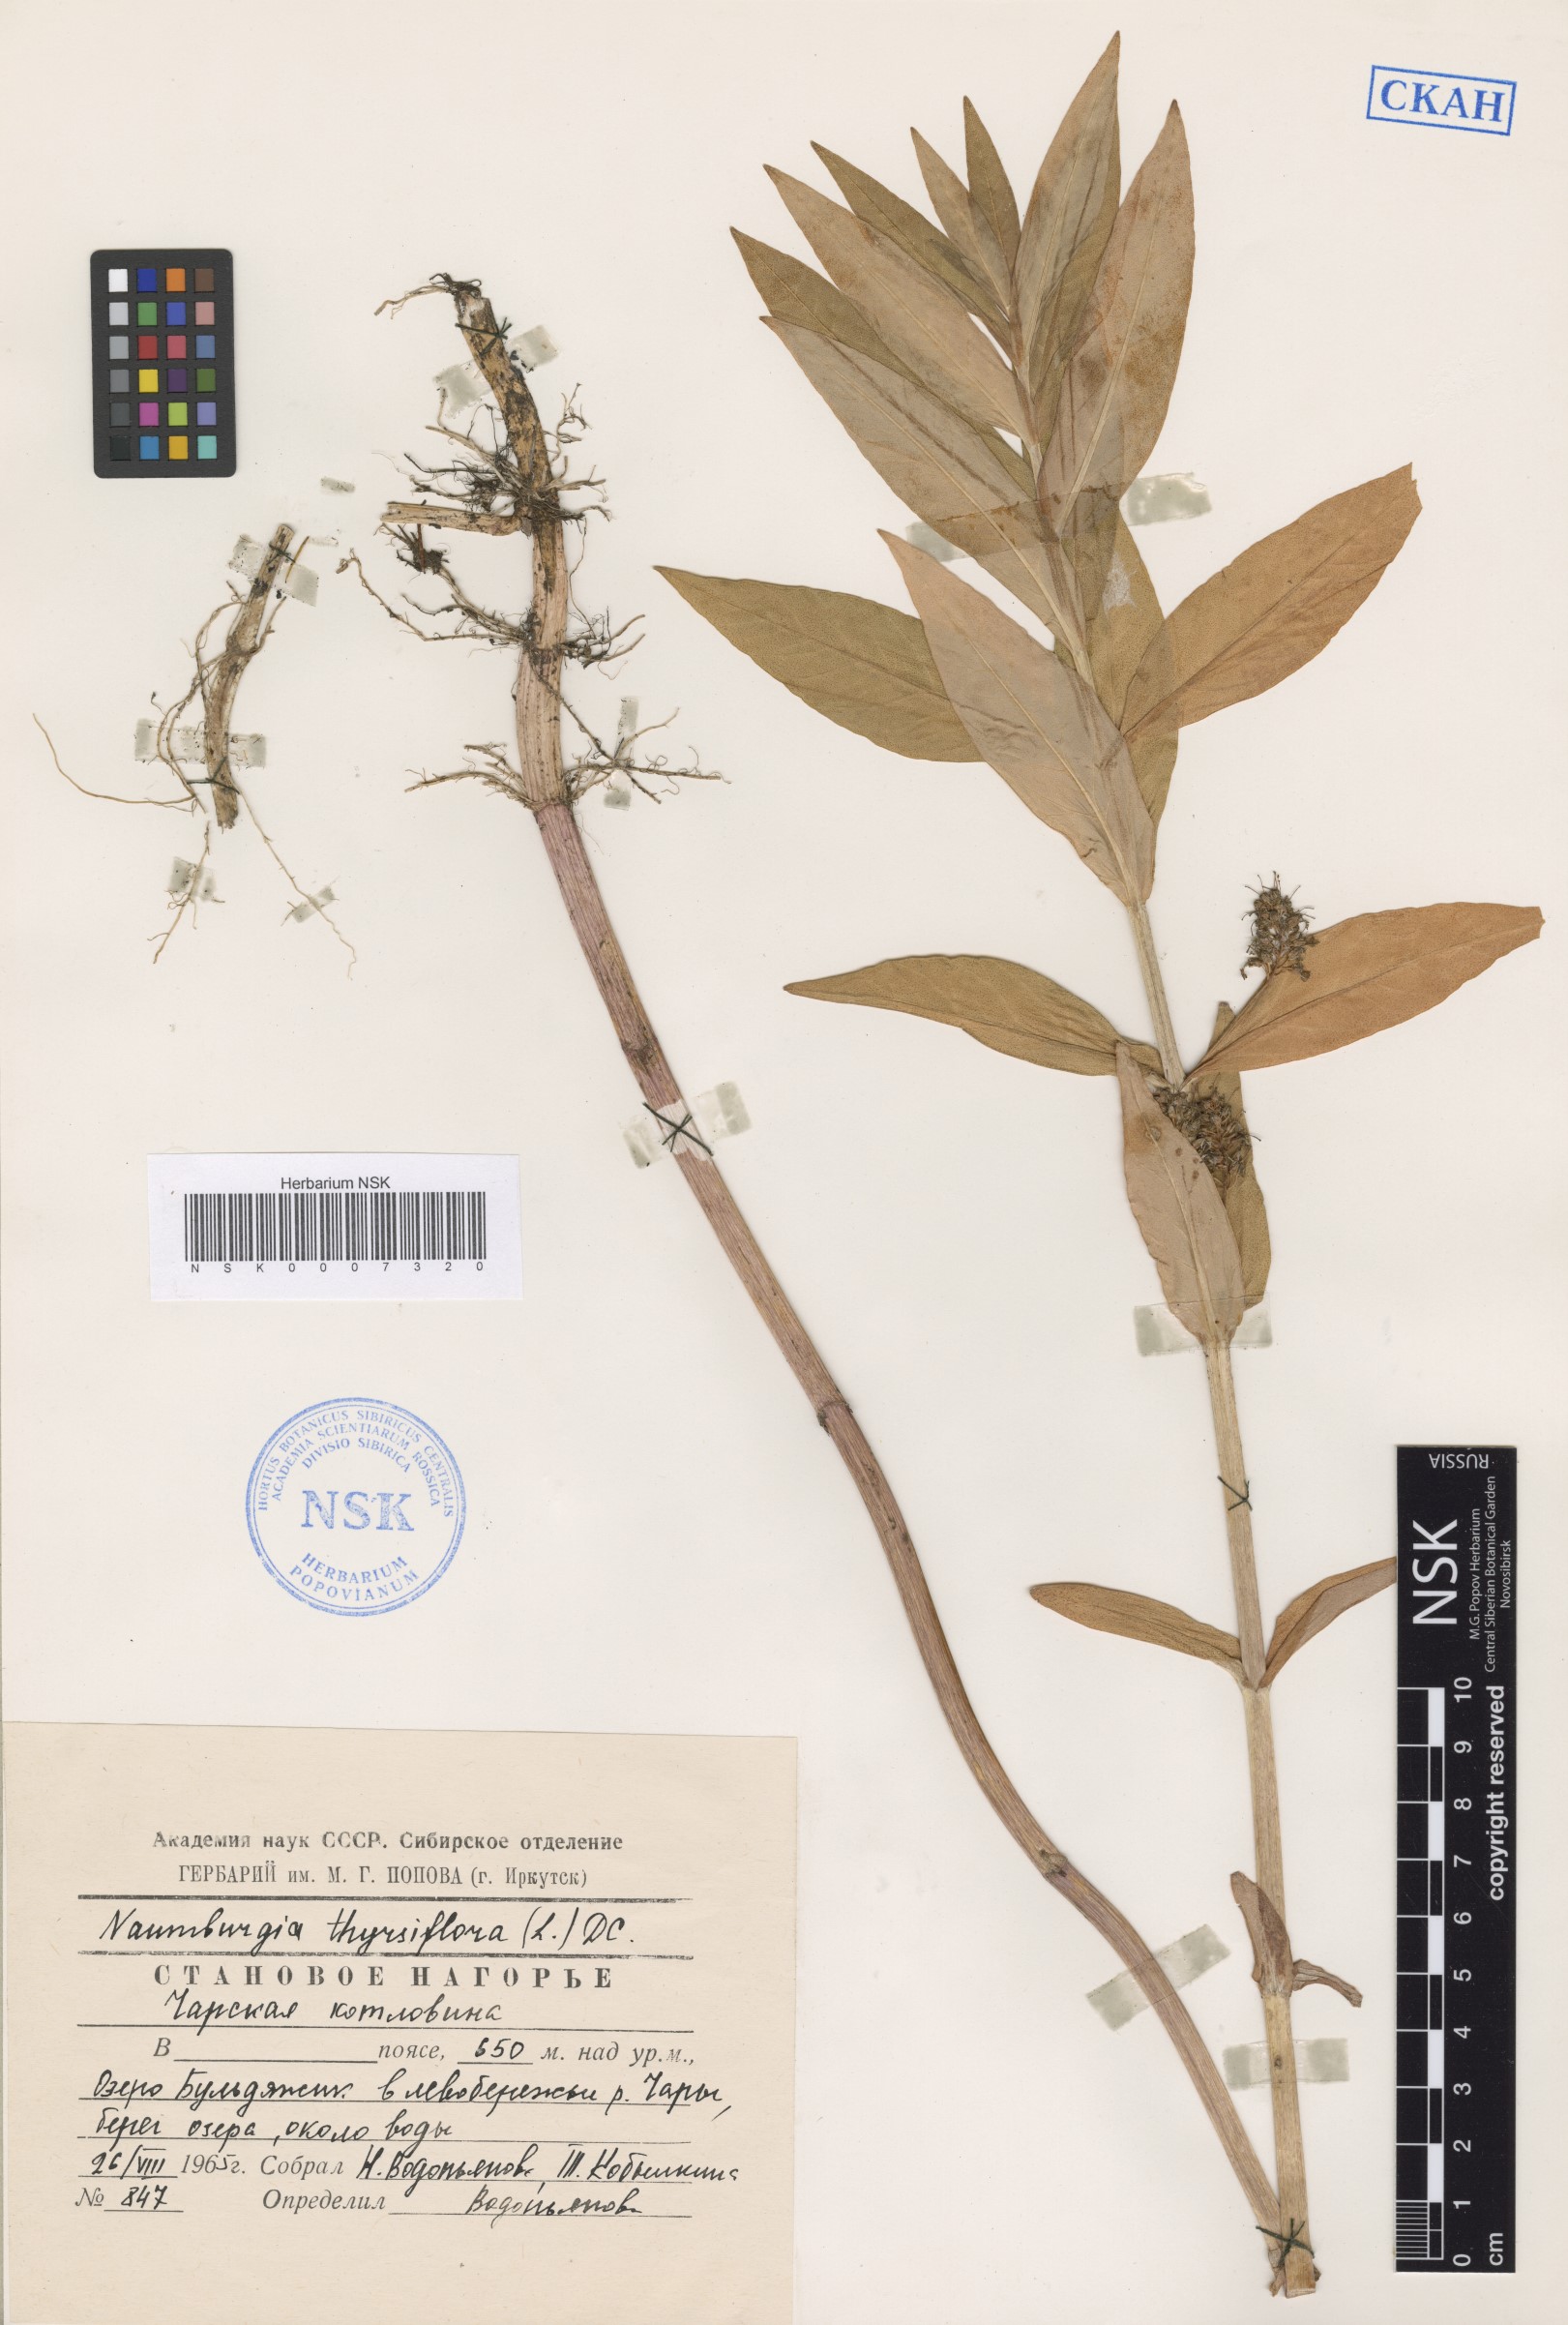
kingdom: Plantae
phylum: Tracheophyta
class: Magnoliopsida
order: Ericales
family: Primulaceae
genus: Lysimachia
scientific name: Lysimachia thyrsiflora
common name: Tufted loosestrife
